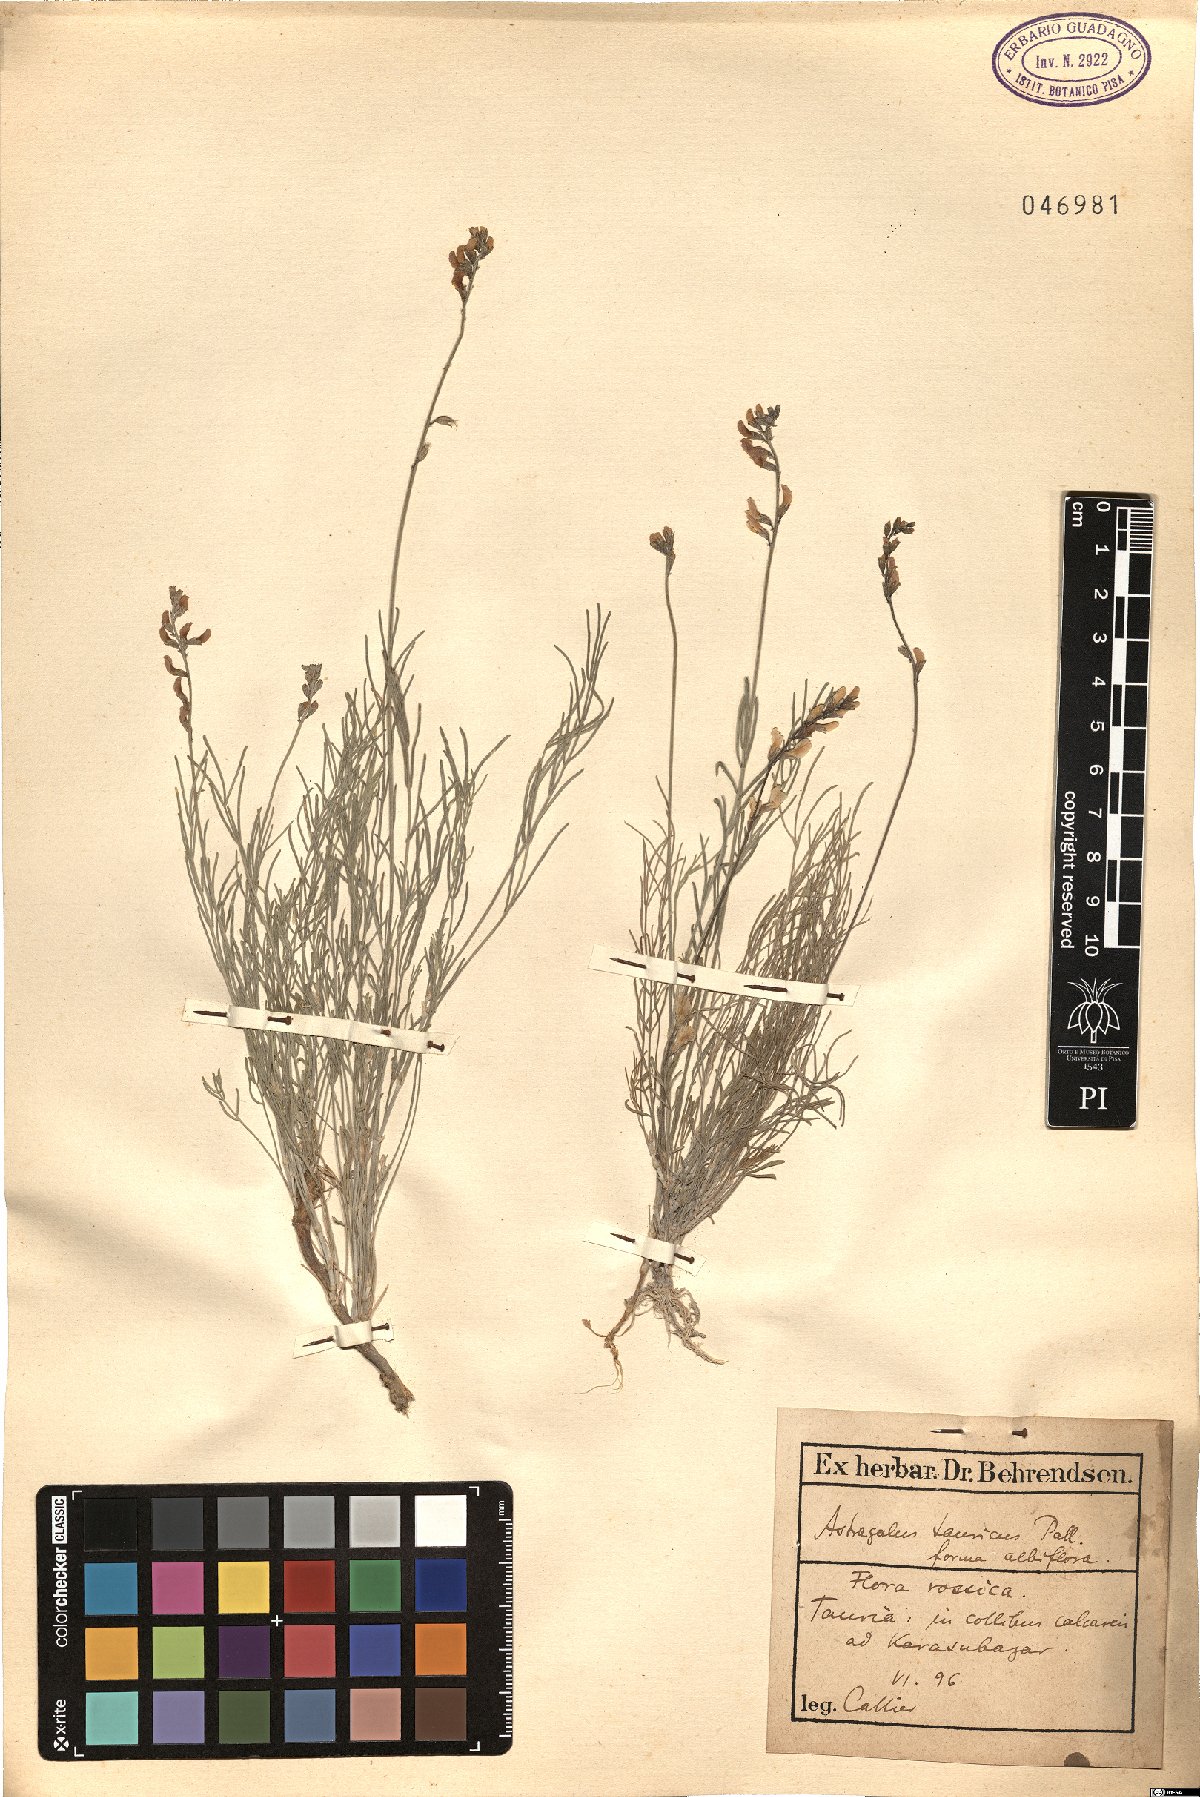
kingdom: Plantae
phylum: Tracheophyta
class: Magnoliopsida
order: Fabales
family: Fabaceae
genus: Astragalus
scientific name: Astragalus leontinus
